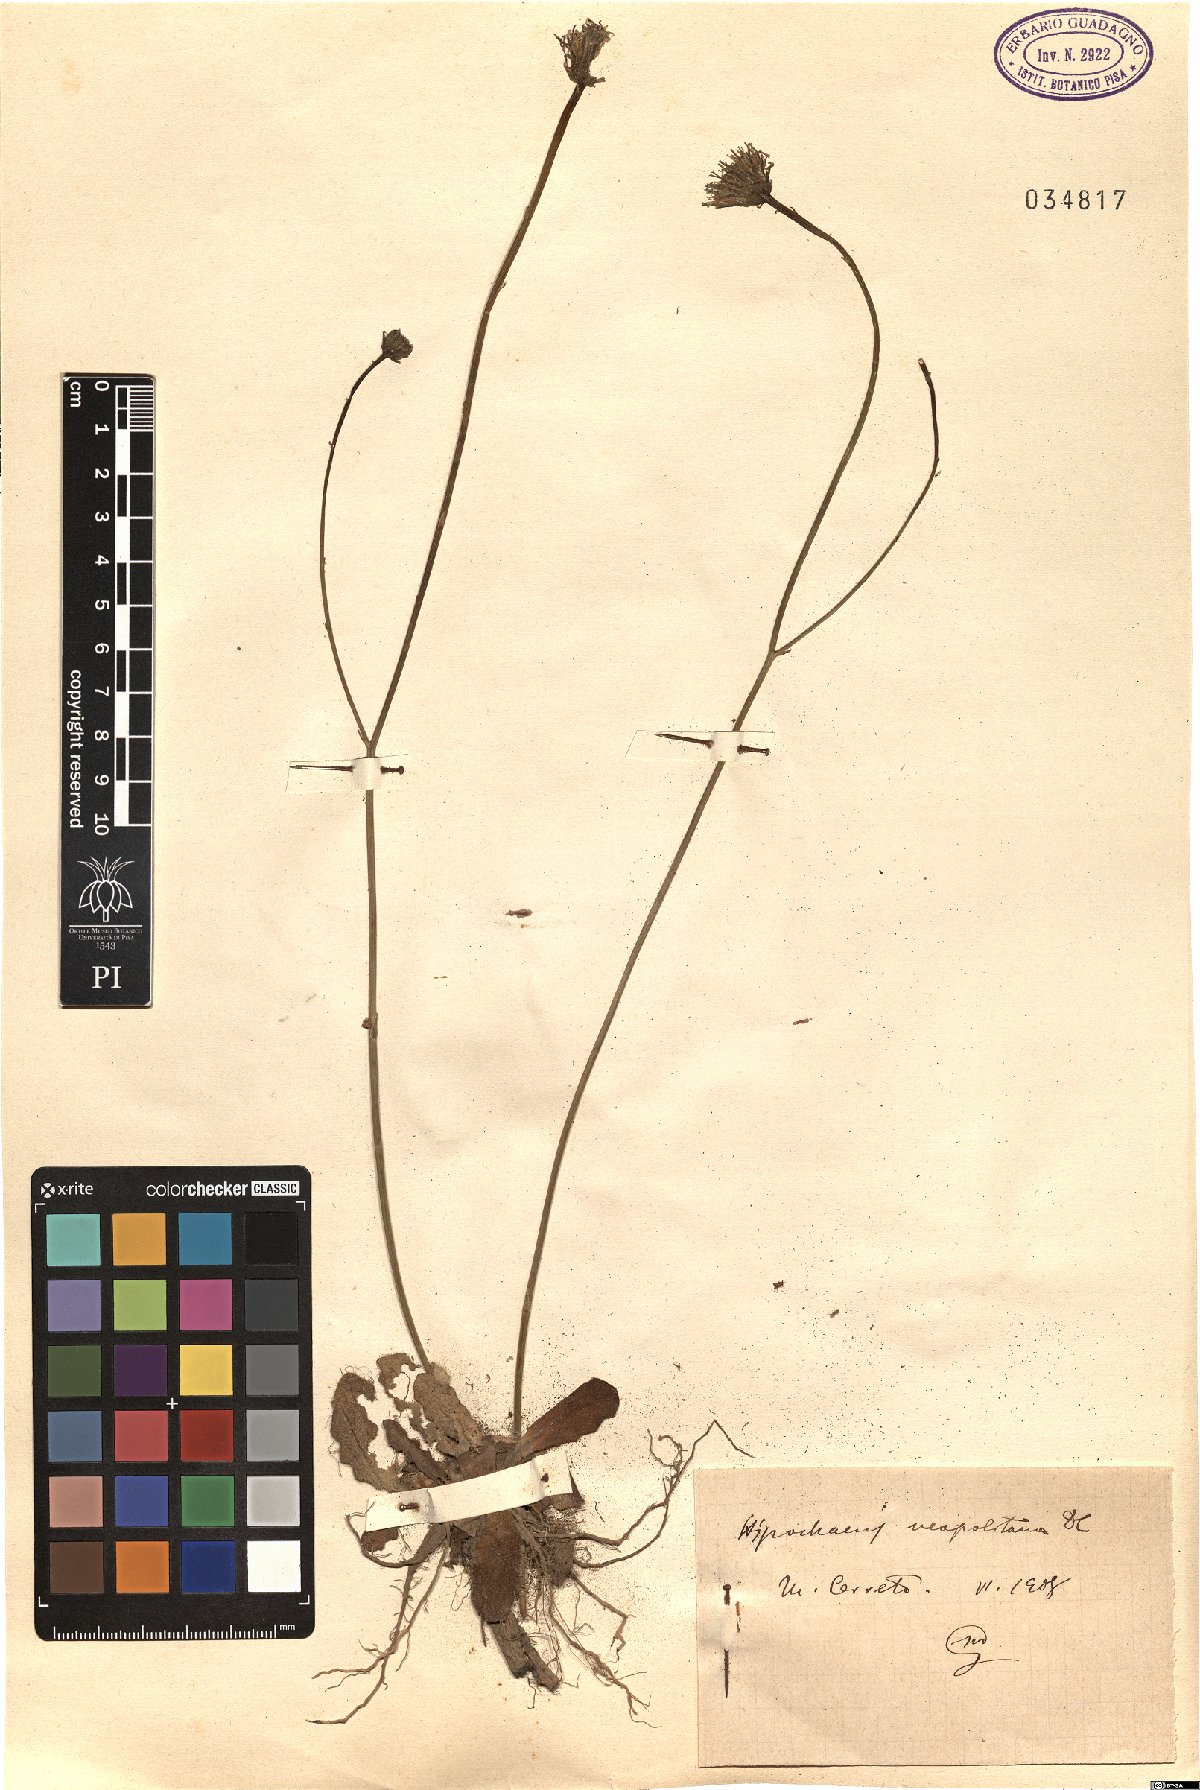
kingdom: Plantae
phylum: Tracheophyta
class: Magnoliopsida
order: Asterales
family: Asteraceae
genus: Hypochaeris
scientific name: Hypochaeris radicata
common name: Flatweed
